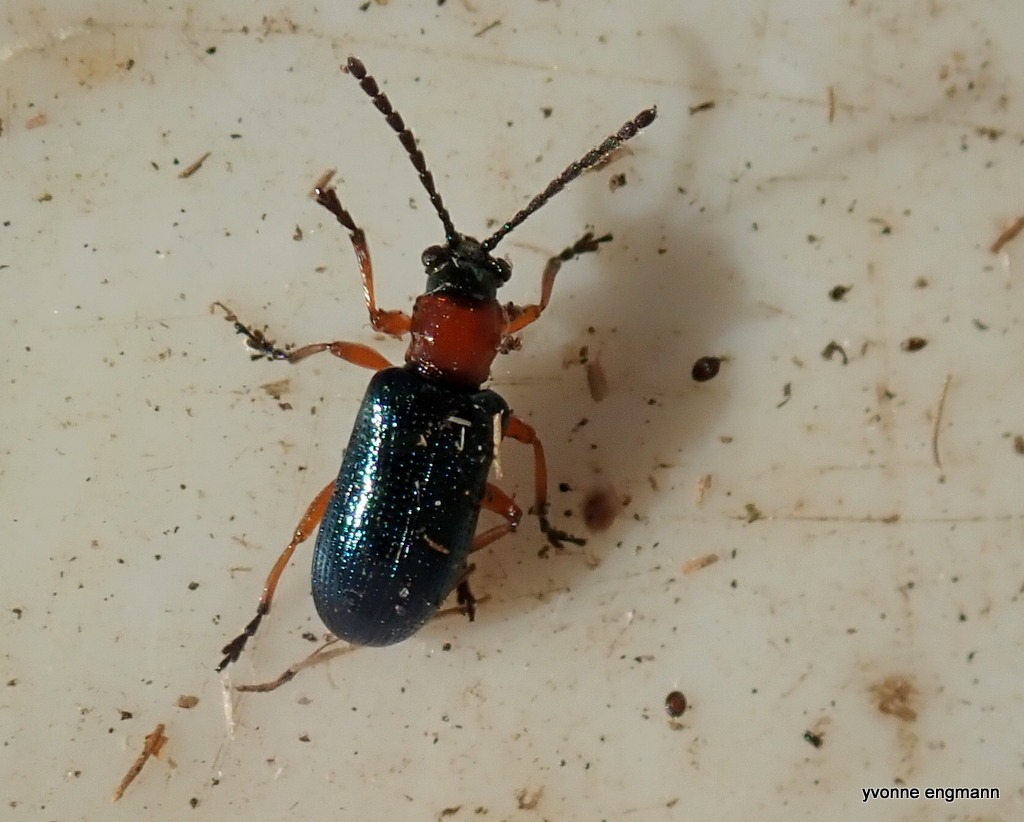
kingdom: Animalia
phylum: Arthropoda
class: Insecta
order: Coleoptera
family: Chrysomelidae
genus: Oulema
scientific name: Oulema
